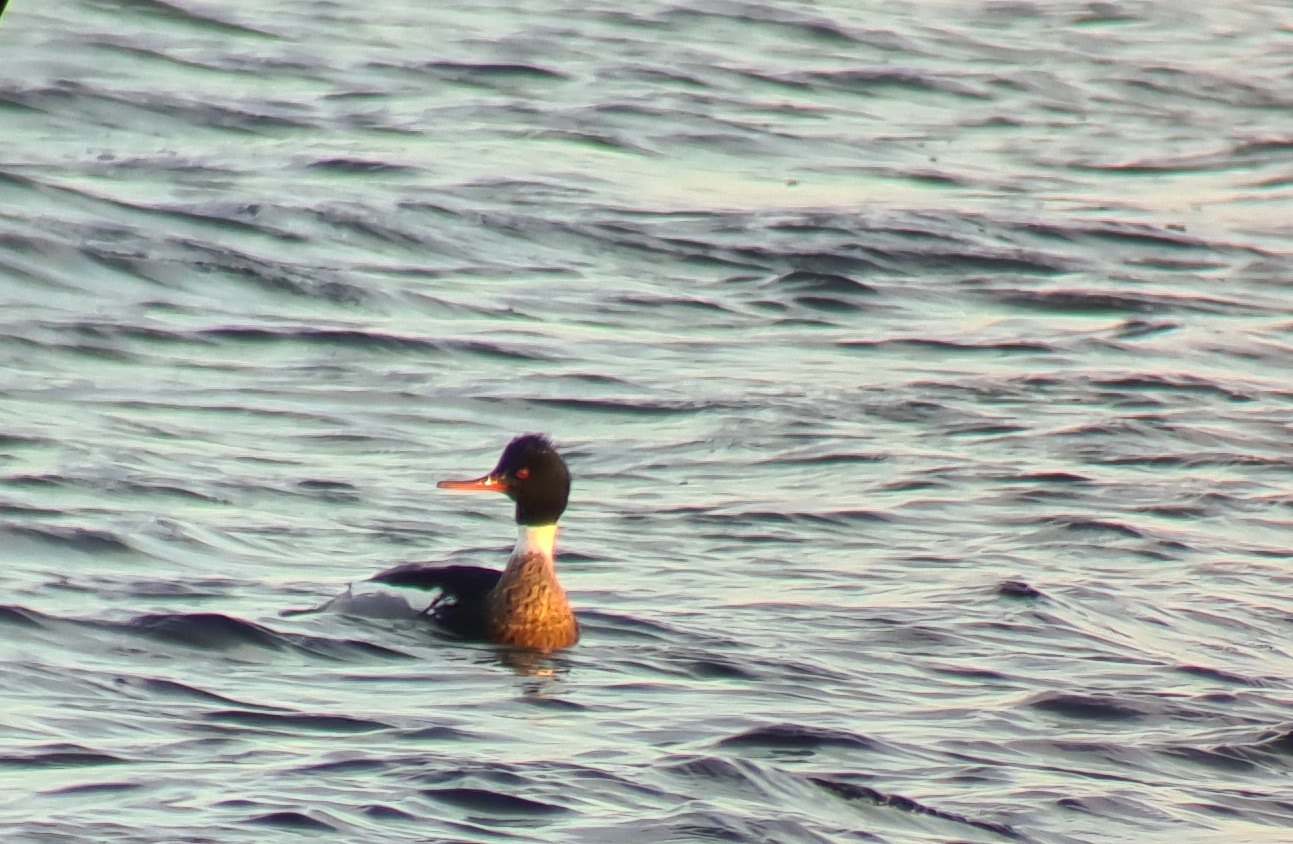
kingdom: Animalia
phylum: Chordata
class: Aves
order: Anseriformes
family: Anatidae
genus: Mergus
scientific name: Mergus serrator
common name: Toppet skallesluger
